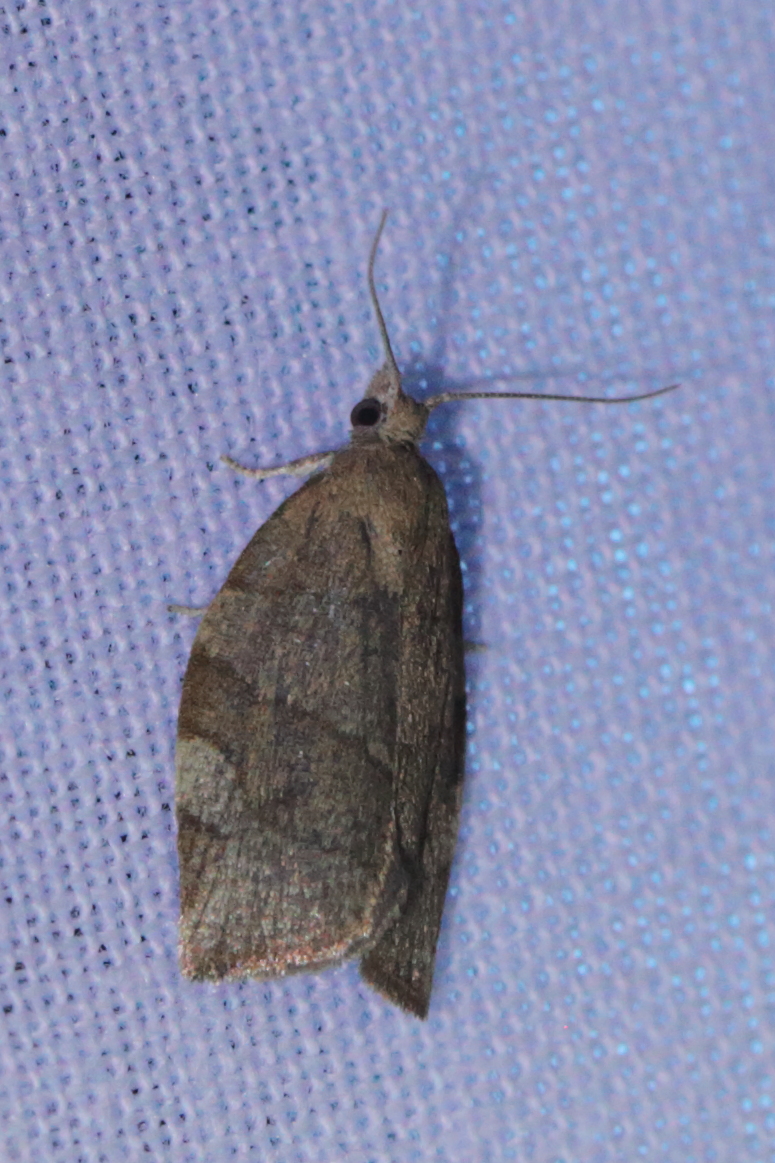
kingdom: Animalia
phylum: Arthropoda
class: Insecta
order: Lepidoptera
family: Tortricidae
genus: Pandemis
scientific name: Pandemis cerasana
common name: Barred fruit-tree tortrix
